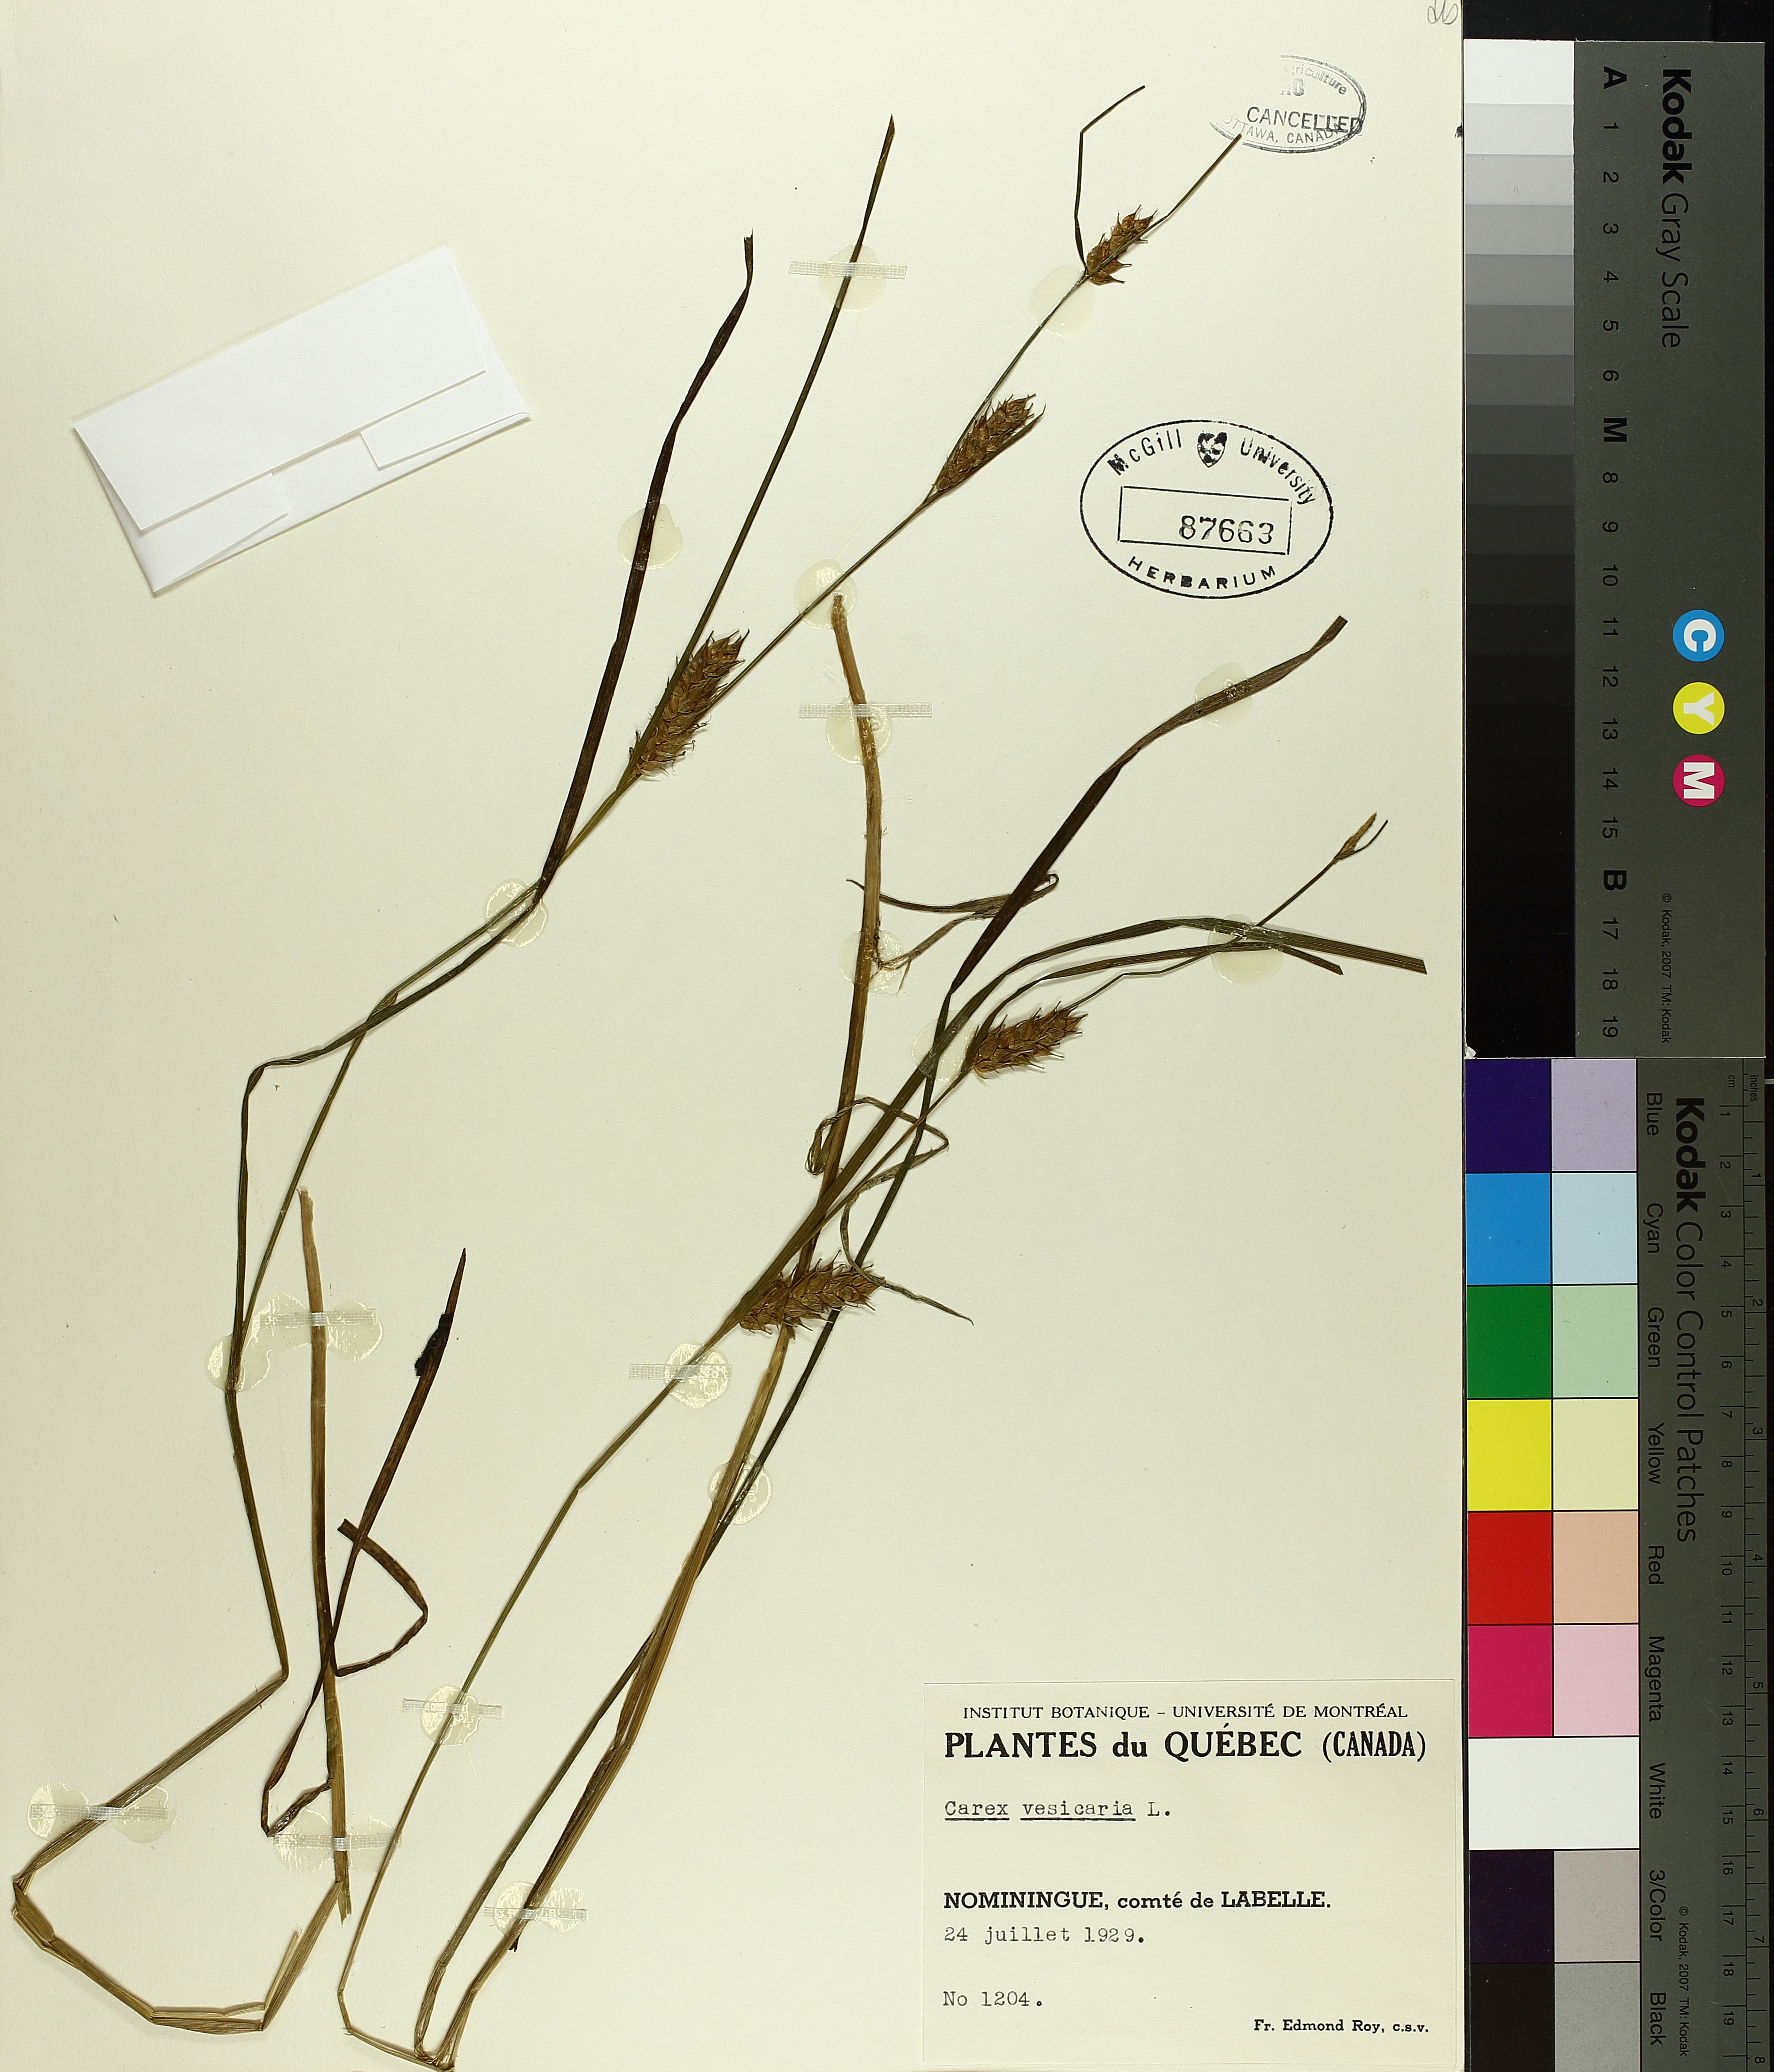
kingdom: Plantae
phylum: Tracheophyta
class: Liliopsida
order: Poales
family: Cyperaceae
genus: Carex
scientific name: Carex vesicaria
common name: Bladder-sedge
